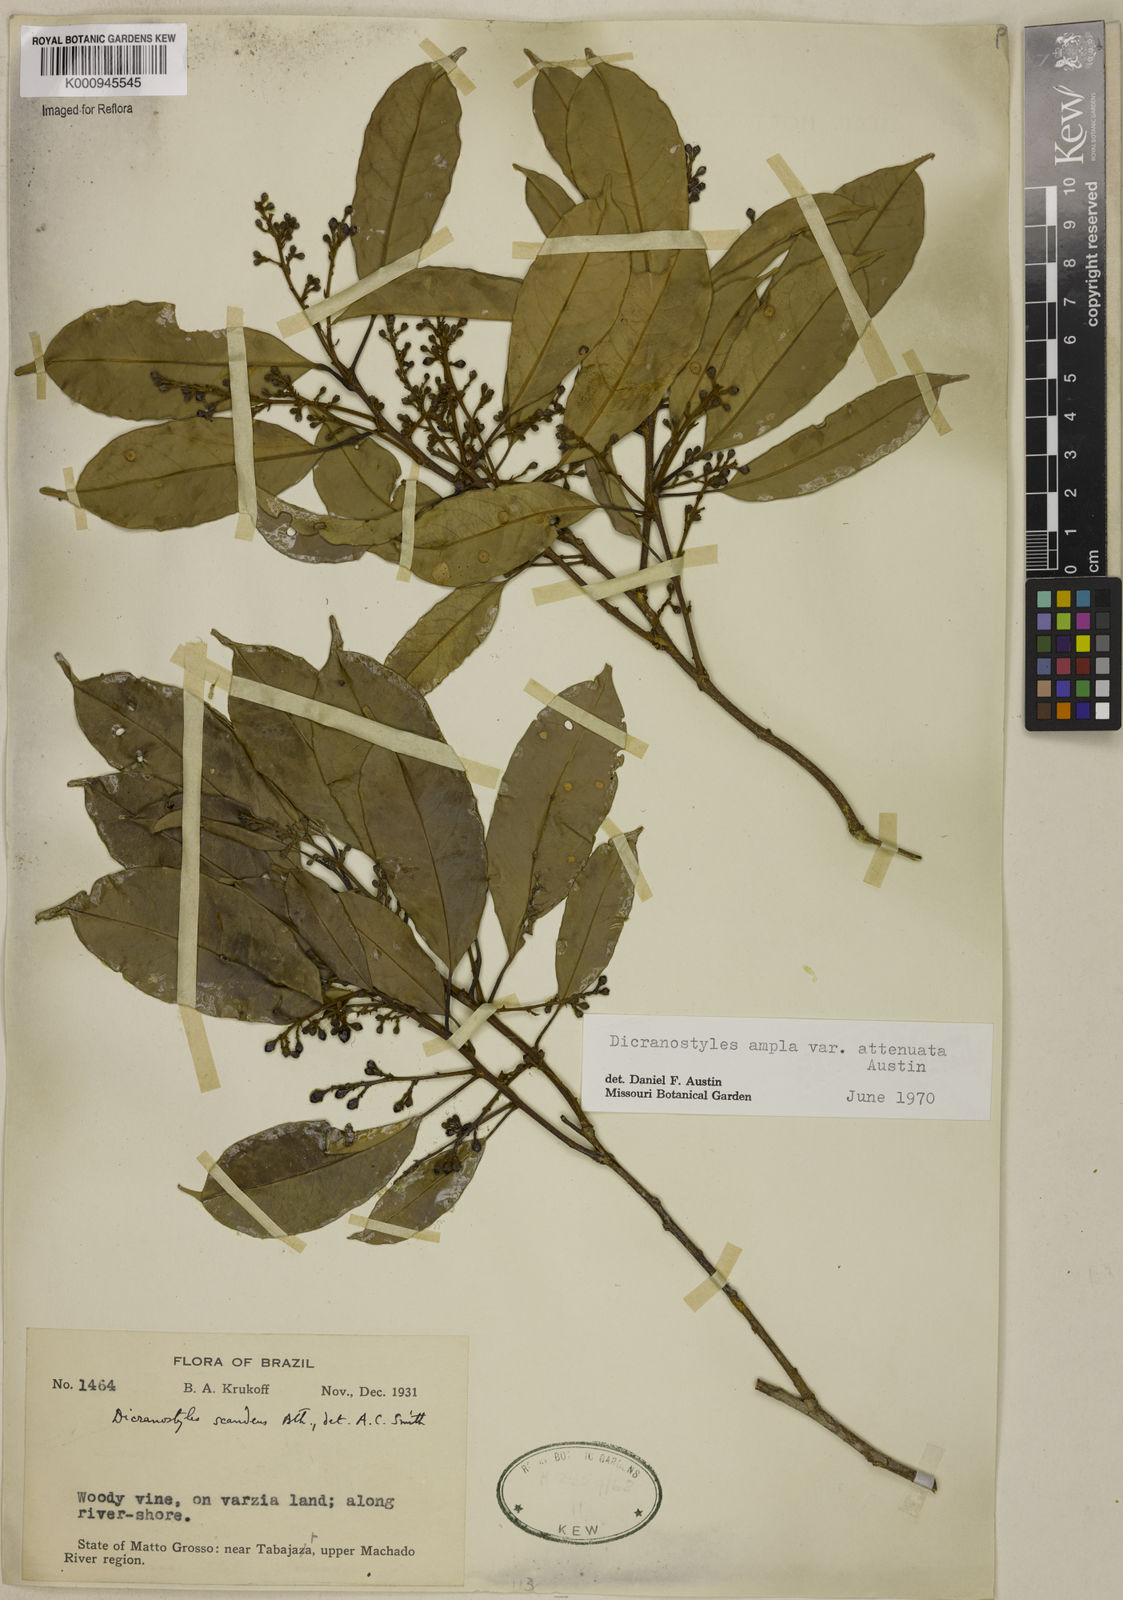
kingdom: Plantae
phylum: Tracheophyta
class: Magnoliopsida
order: Solanales
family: Convolvulaceae
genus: Dicranostyles
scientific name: Dicranostyles ampla
